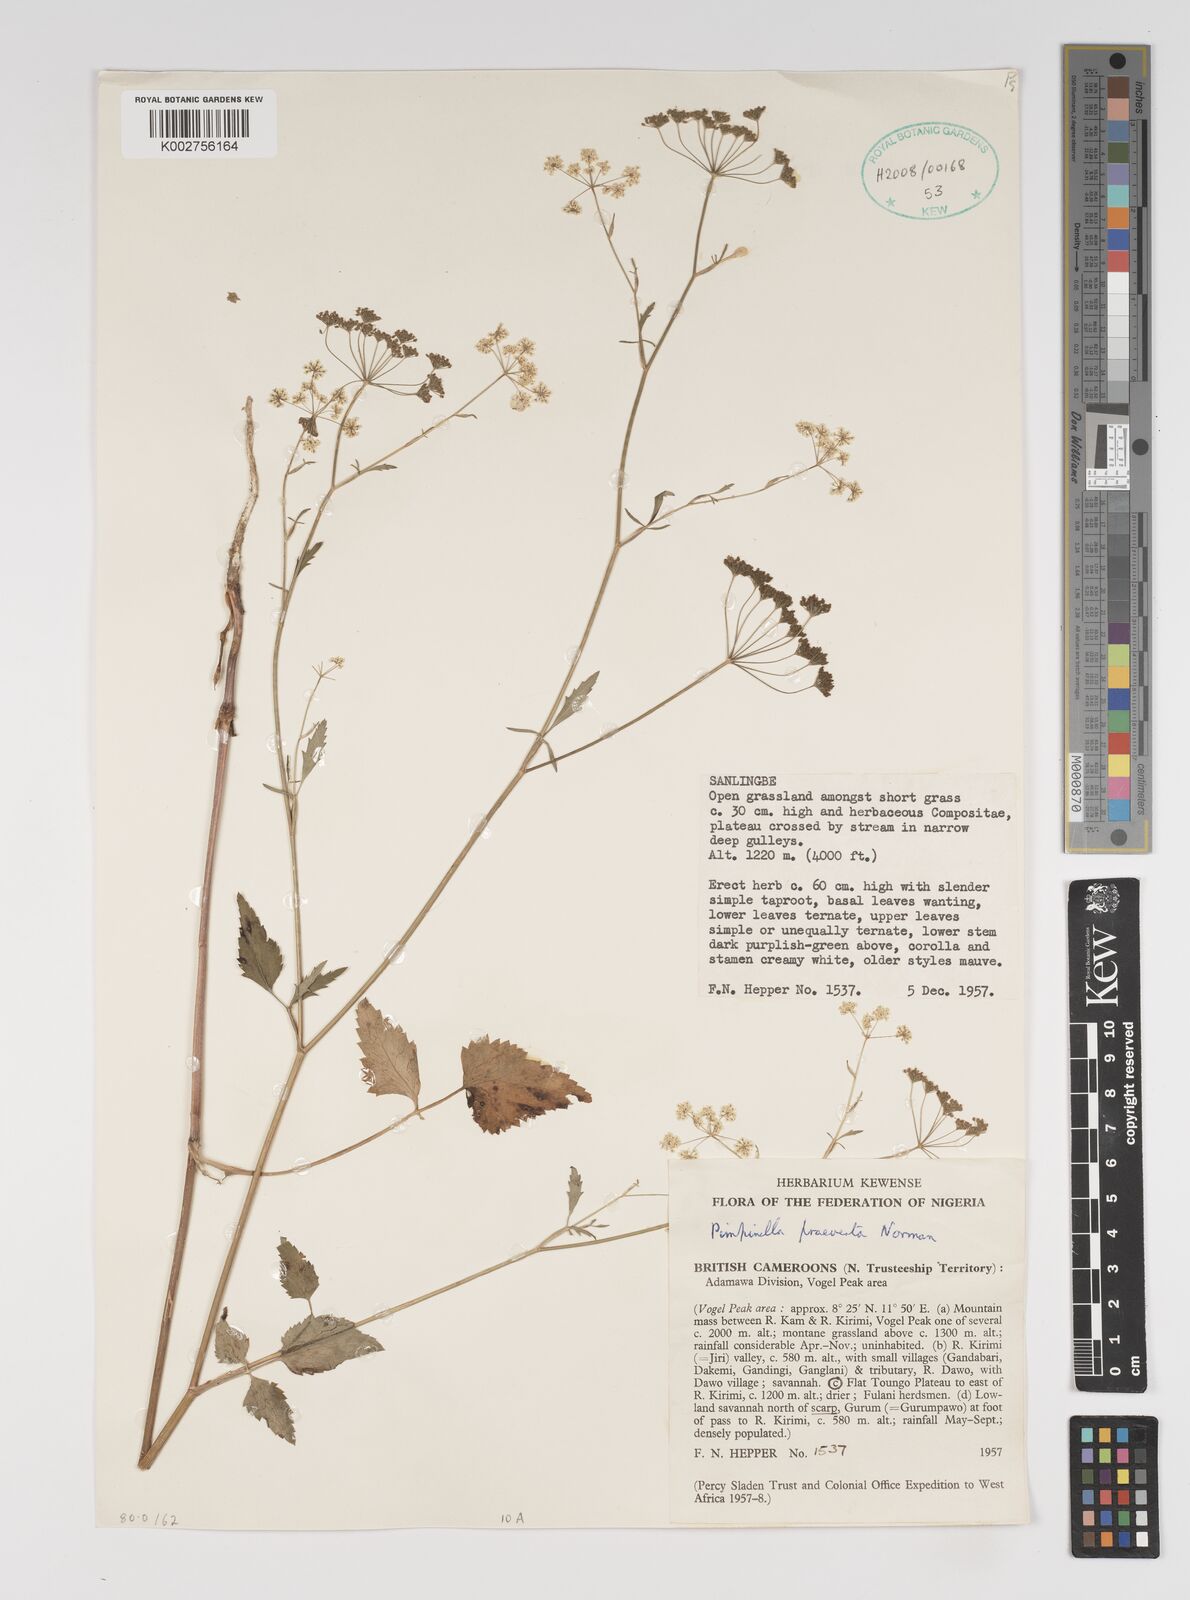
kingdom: Plantae
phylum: Tracheophyta
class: Magnoliopsida
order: Apiales
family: Apiaceae
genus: Pimpinella
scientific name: Pimpinella hirtella
